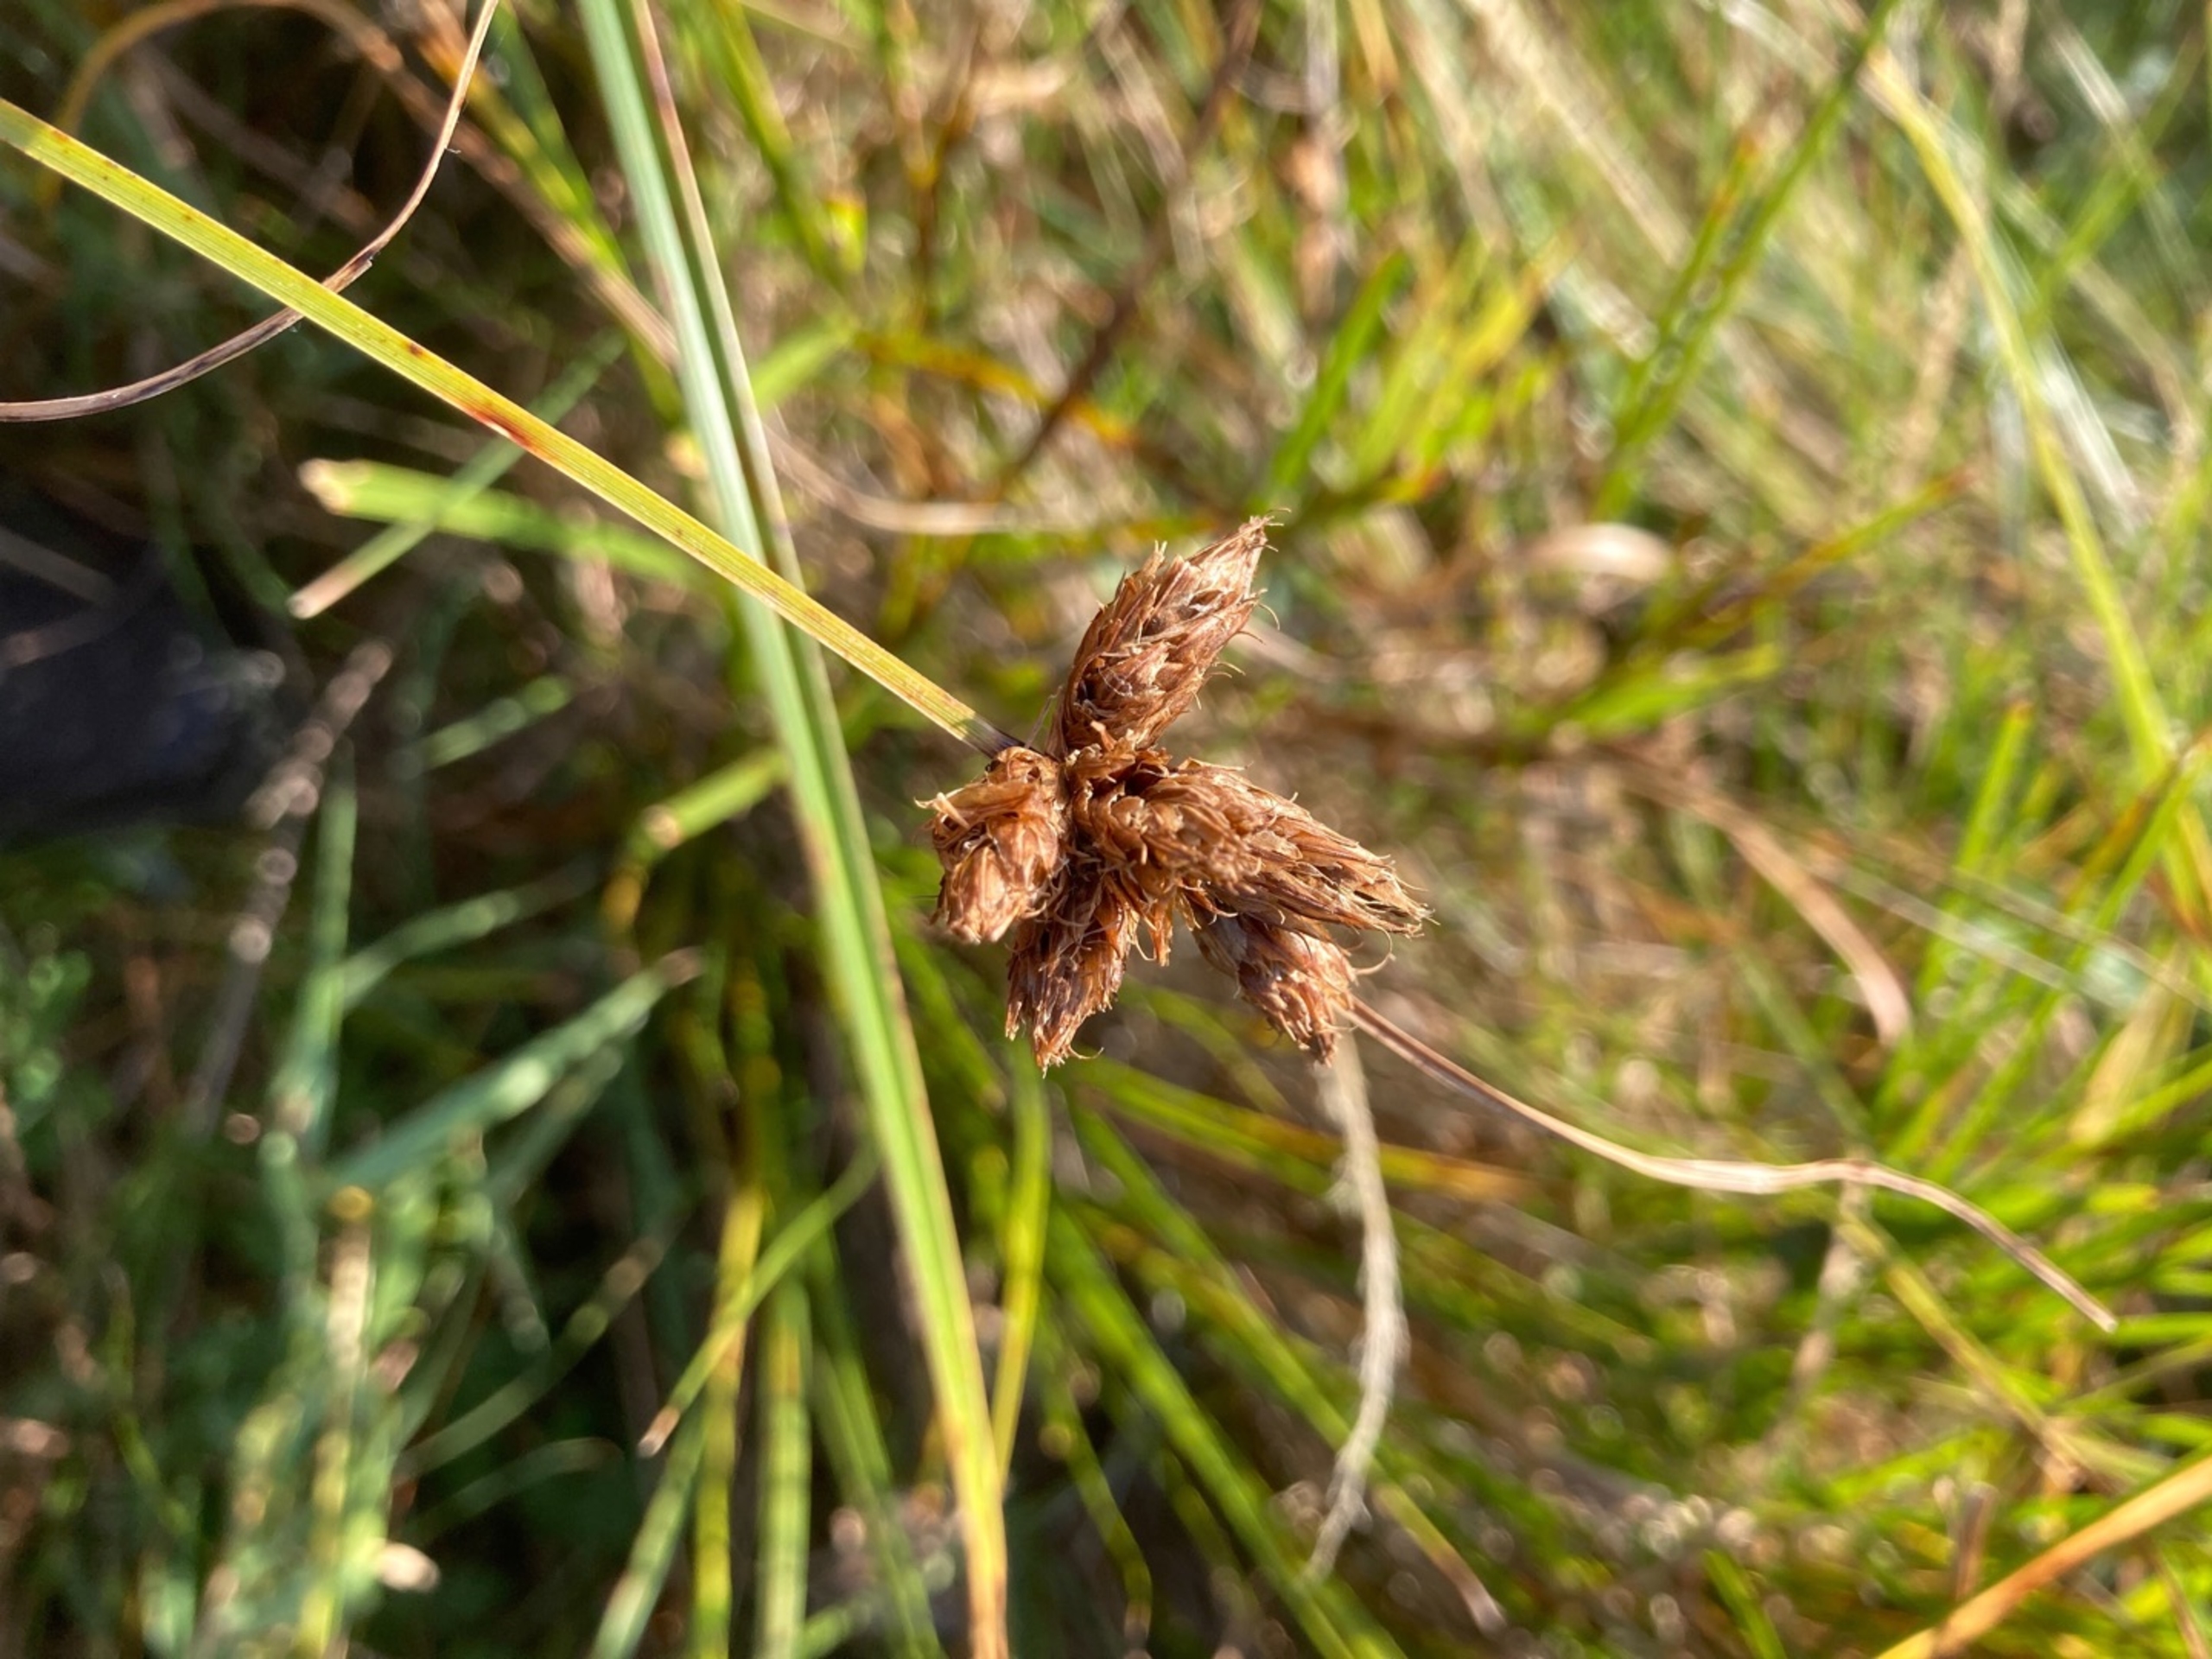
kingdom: Plantae
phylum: Tracheophyta
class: Liliopsida
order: Poales
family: Cyperaceae
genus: Bolboschoenus
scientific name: Bolboschoenus maritimus
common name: Strand-kogleaks
